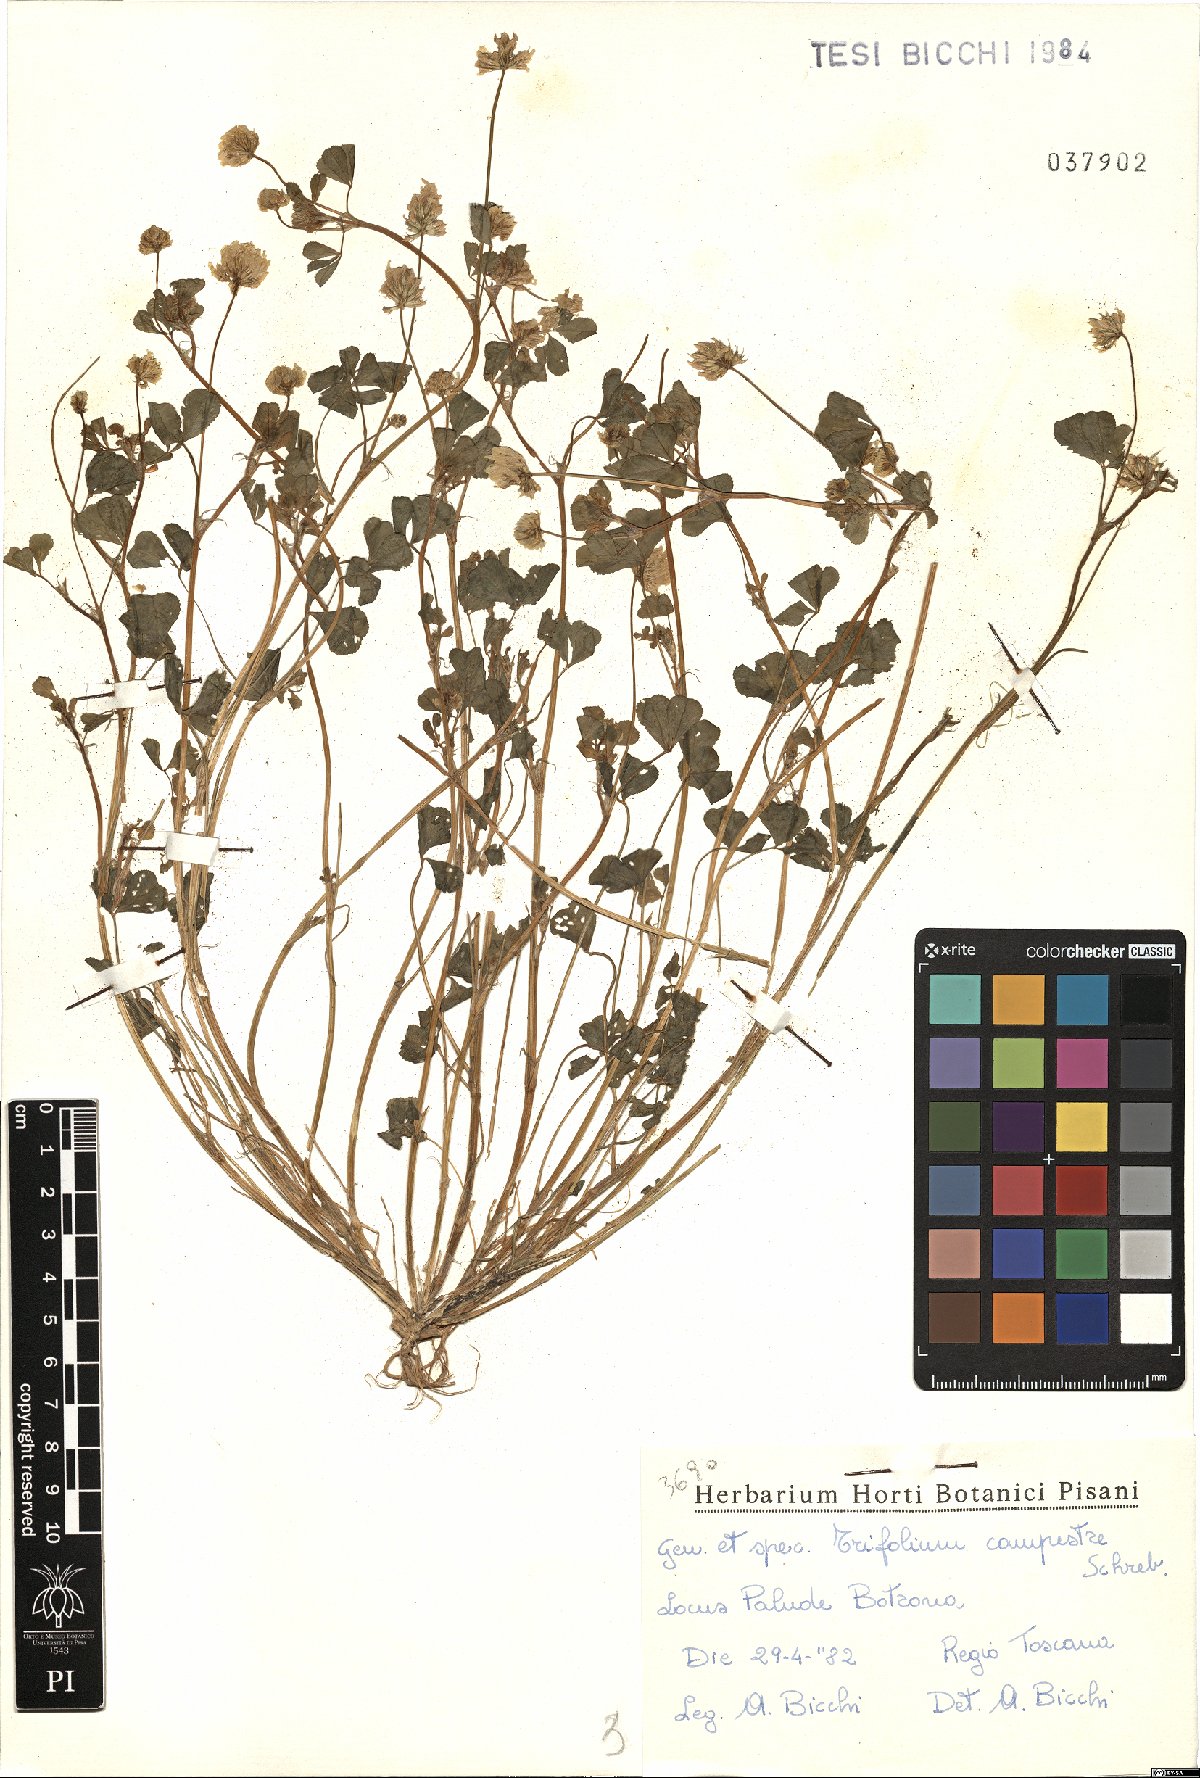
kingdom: Plantae
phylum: Tracheophyta
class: Magnoliopsida
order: Fabales
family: Fabaceae
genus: Trifolium
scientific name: Trifolium campestre
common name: Field clover
